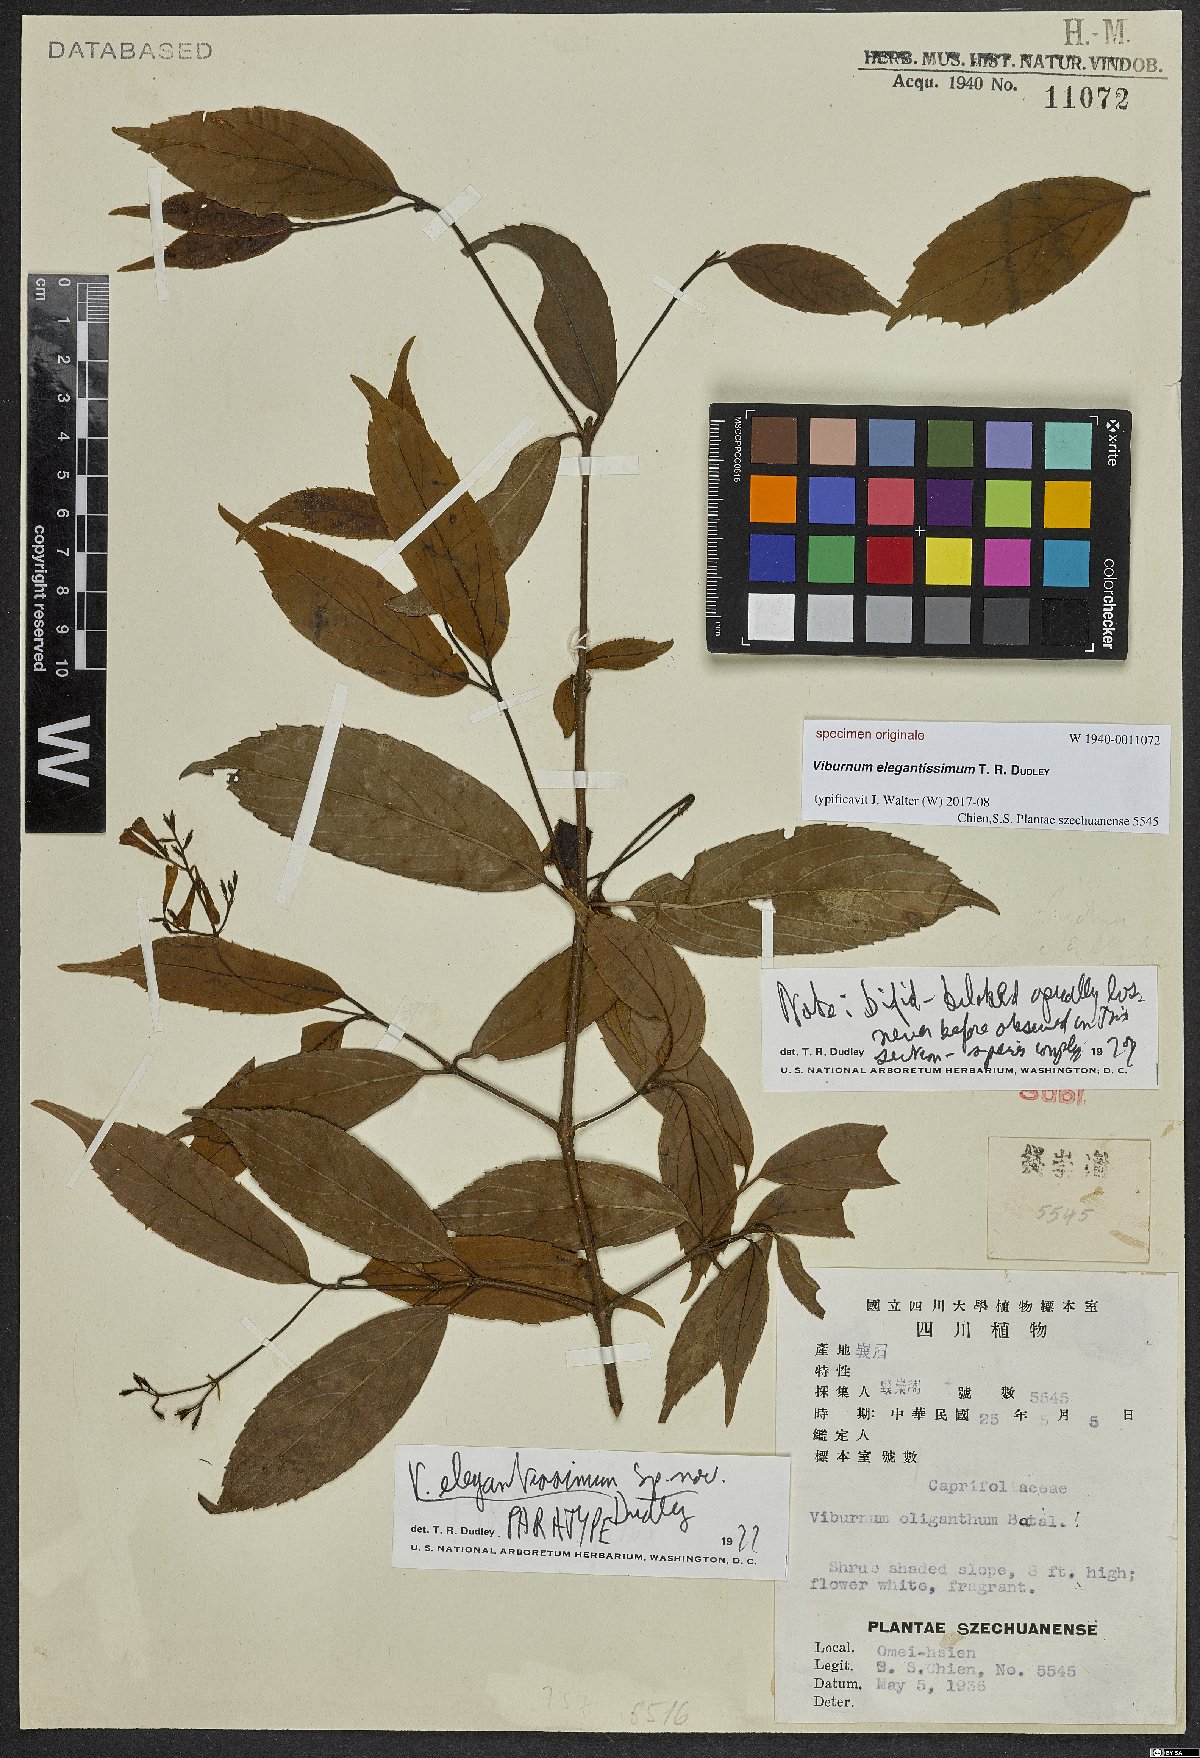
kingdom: Plantae
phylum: Tracheophyta
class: Magnoliopsida
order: Dipsacales
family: Viburnaceae
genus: Viburnum
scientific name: Viburnum
